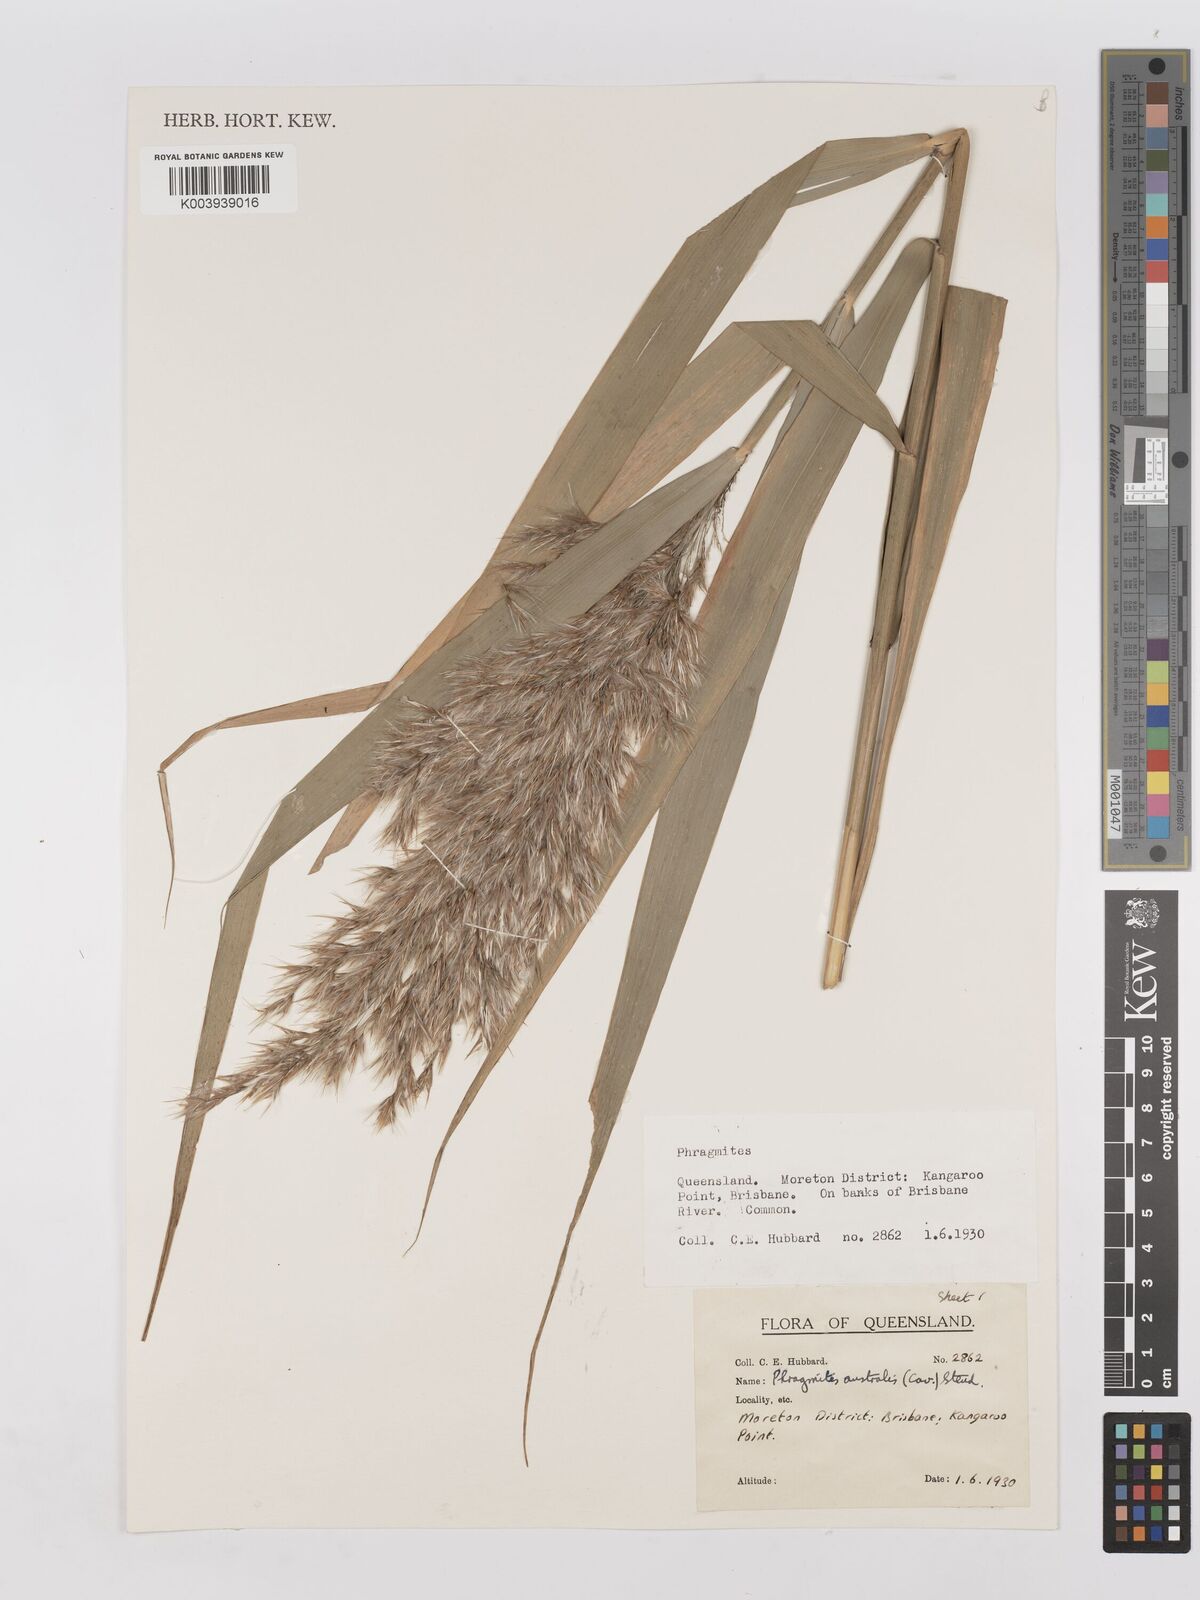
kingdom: Plantae
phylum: Tracheophyta
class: Liliopsida
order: Poales
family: Poaceae
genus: Phragmites
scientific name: Phragmites australis
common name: Common reed
